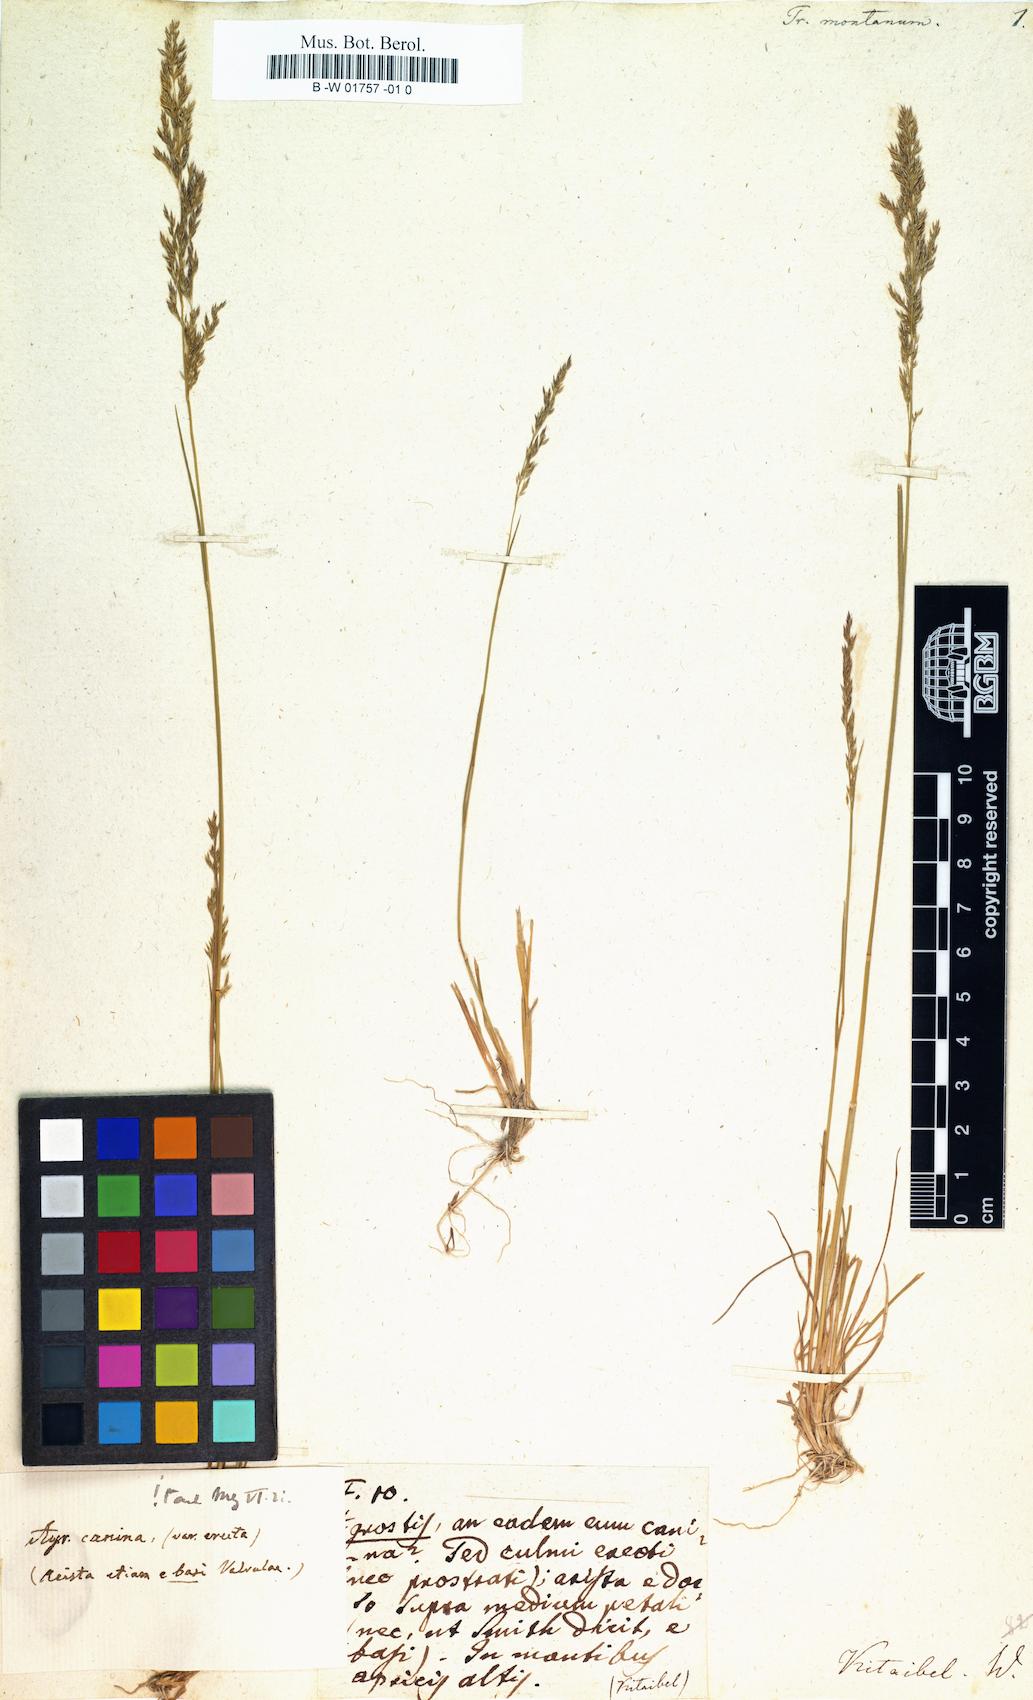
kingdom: Plantae
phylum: Tracheophyta
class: Liliopsida
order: Poales
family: Poaceae
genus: Agrostis
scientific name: Agrostis scabra
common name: Rough bent
